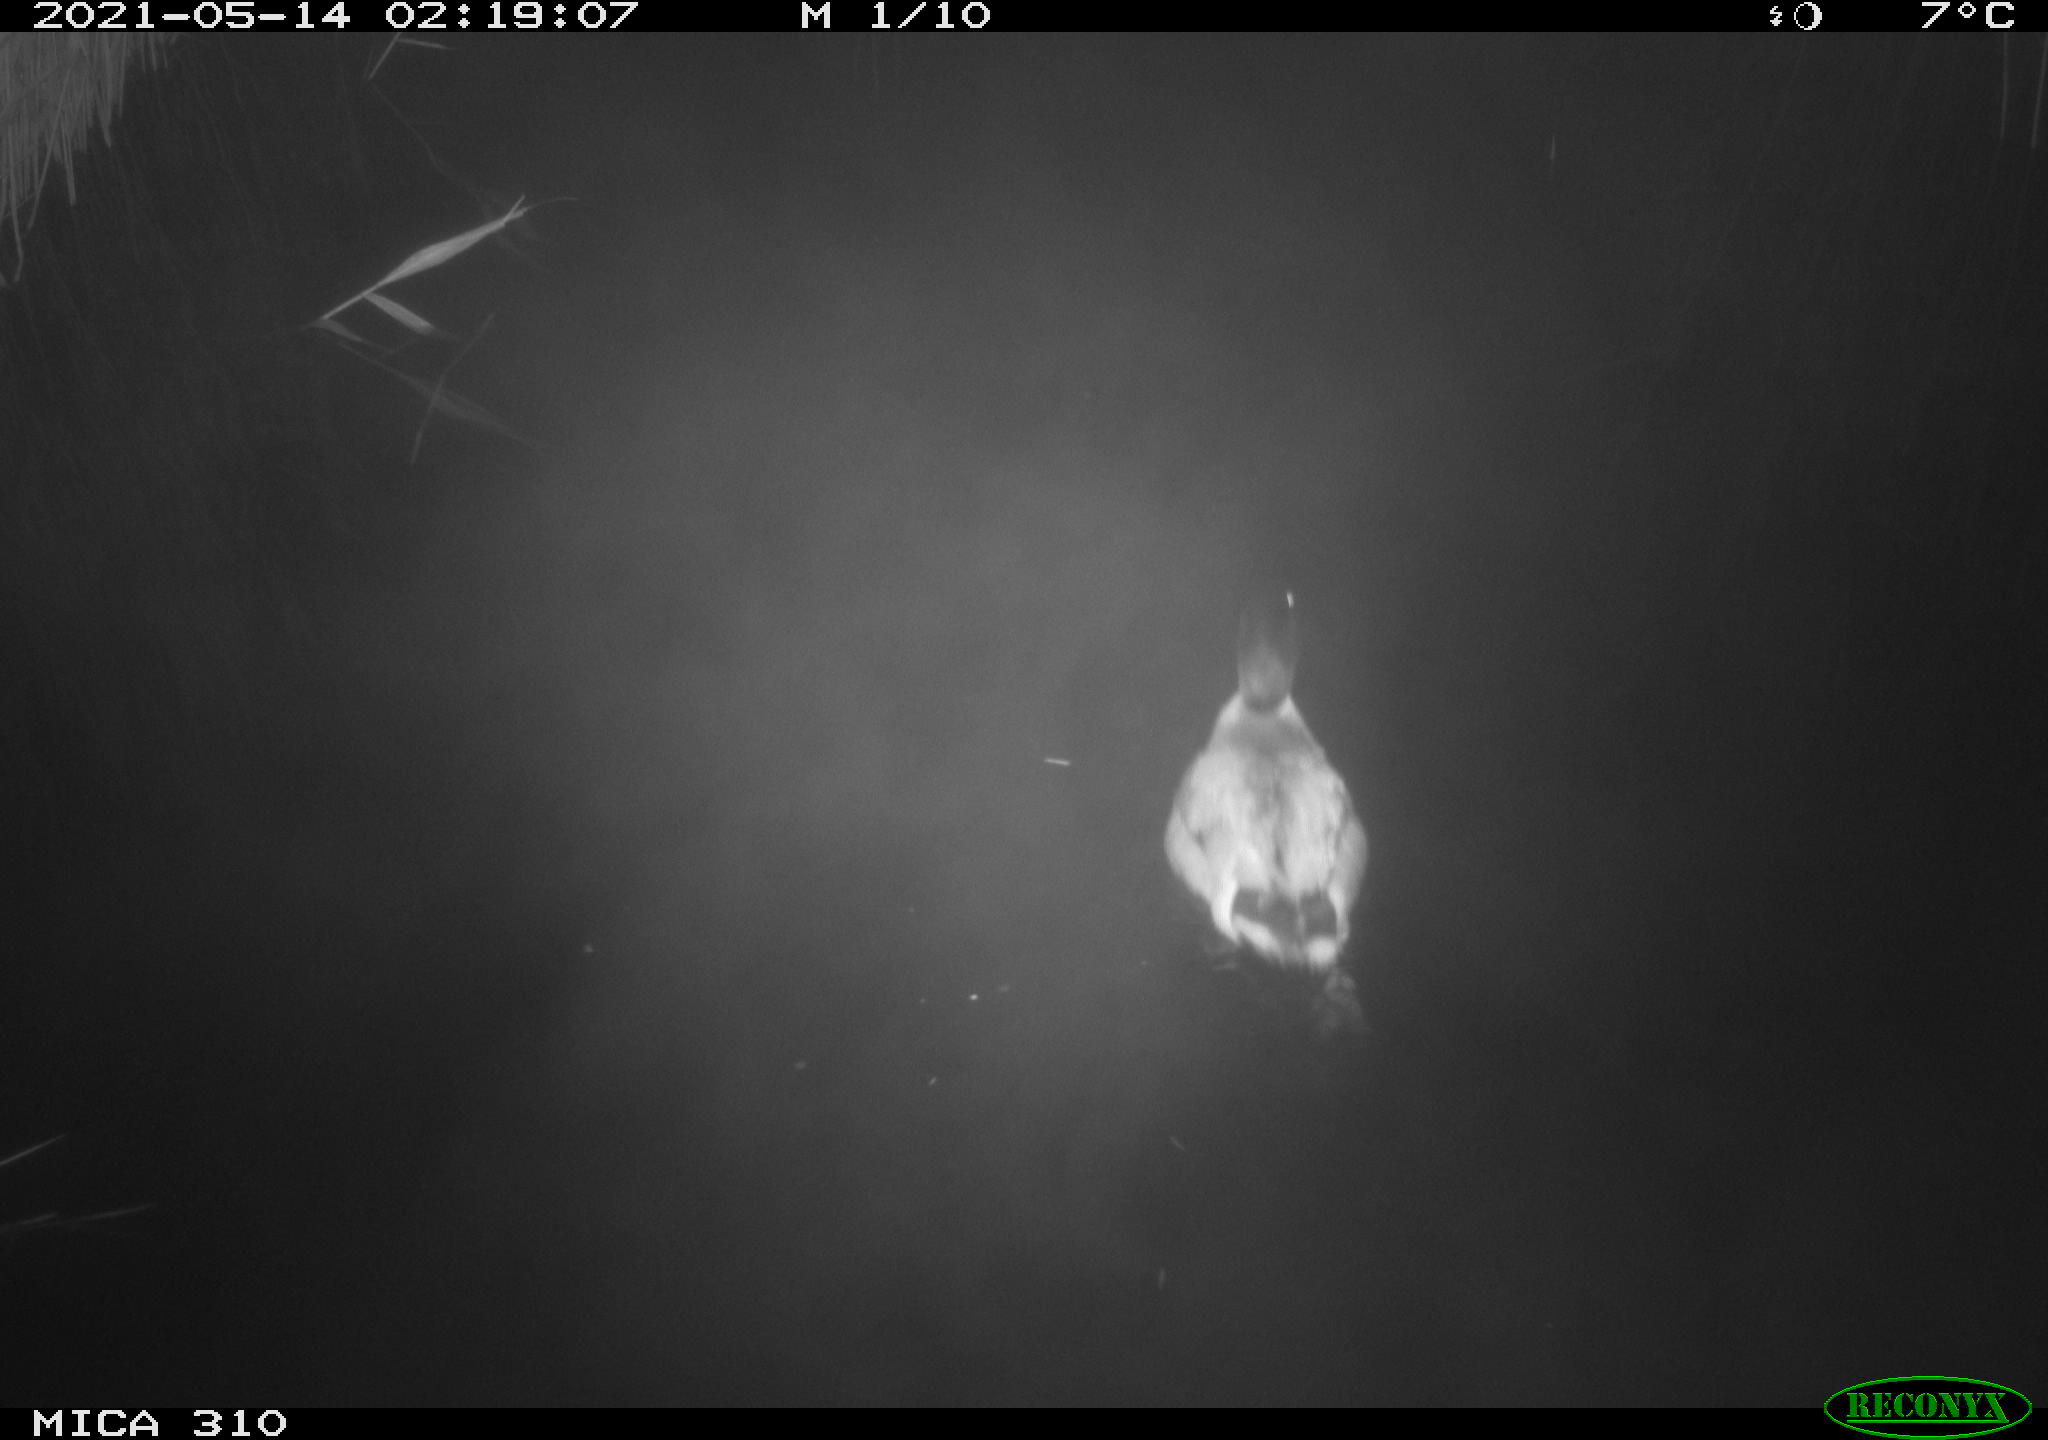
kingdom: Animalia
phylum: Chordata
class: Aves
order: Anseriformes
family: Anatidae
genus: Anas
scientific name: Anas platyrhynchos
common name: Mallard
